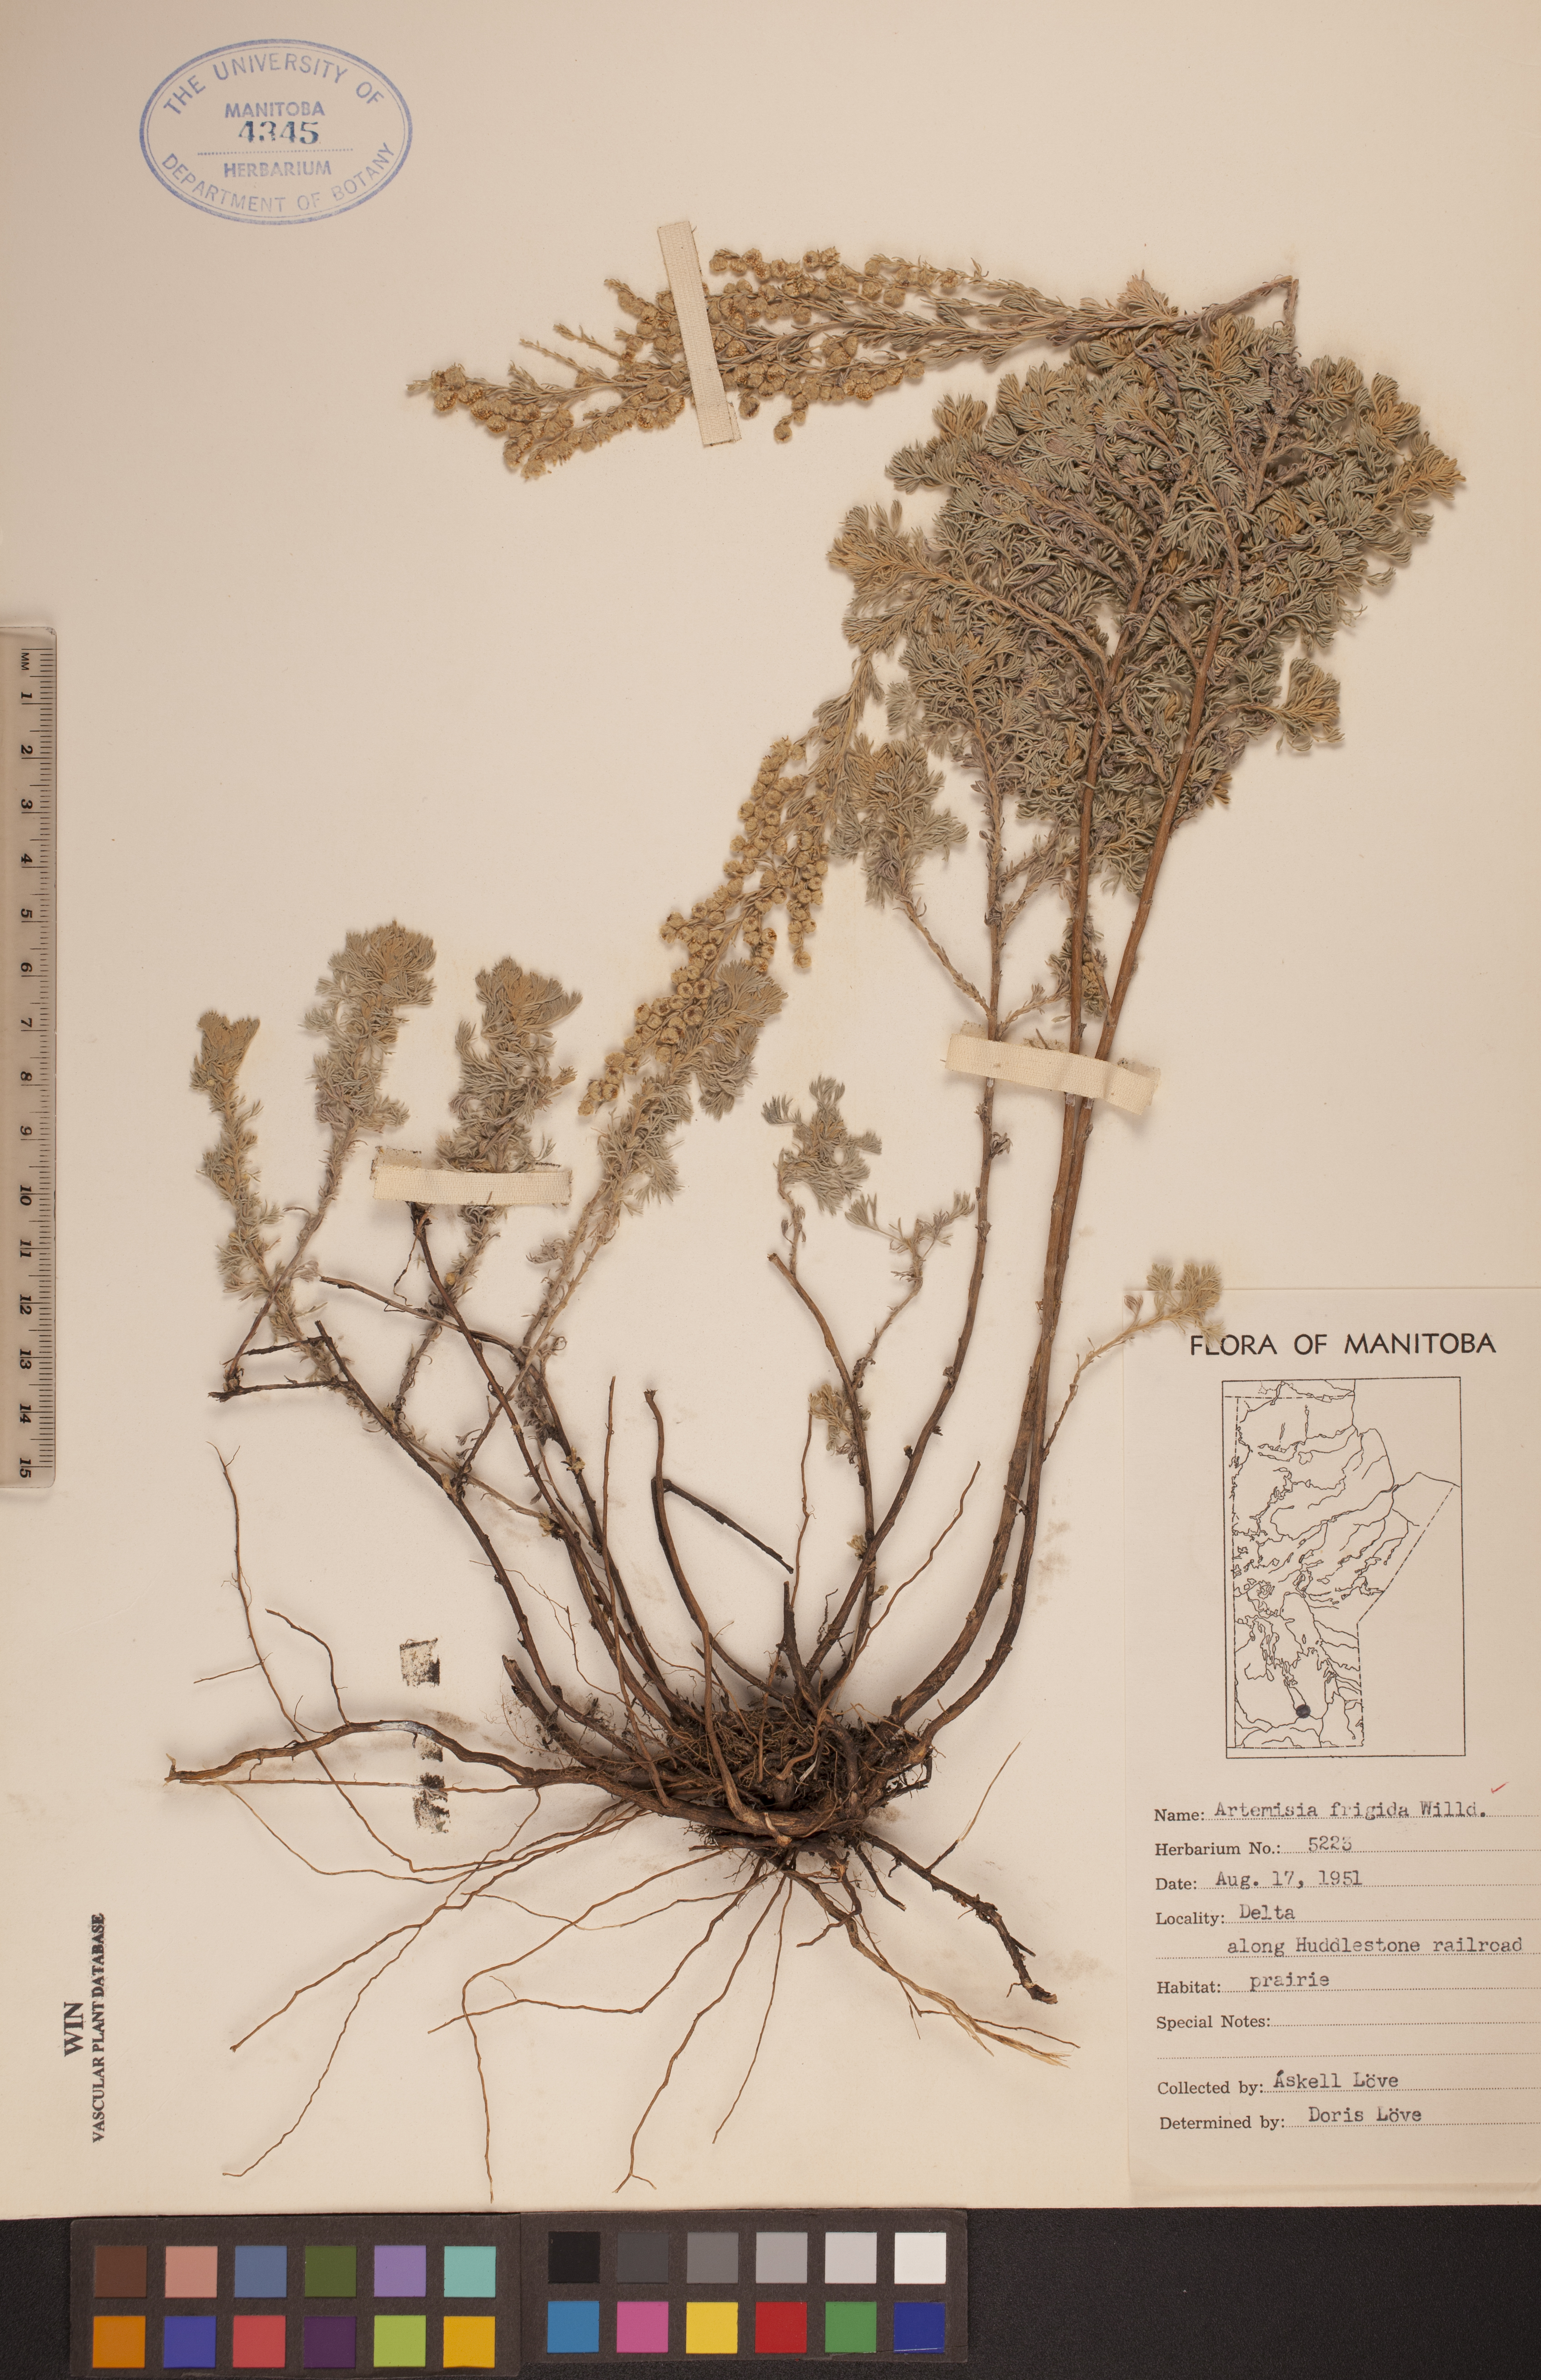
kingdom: Plantae
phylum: Tracheophyta
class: Magnoliopsida
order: Asterales
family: Asteraceae
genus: Artemisia
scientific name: Artemisia frigida
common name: Prairie sagewort
